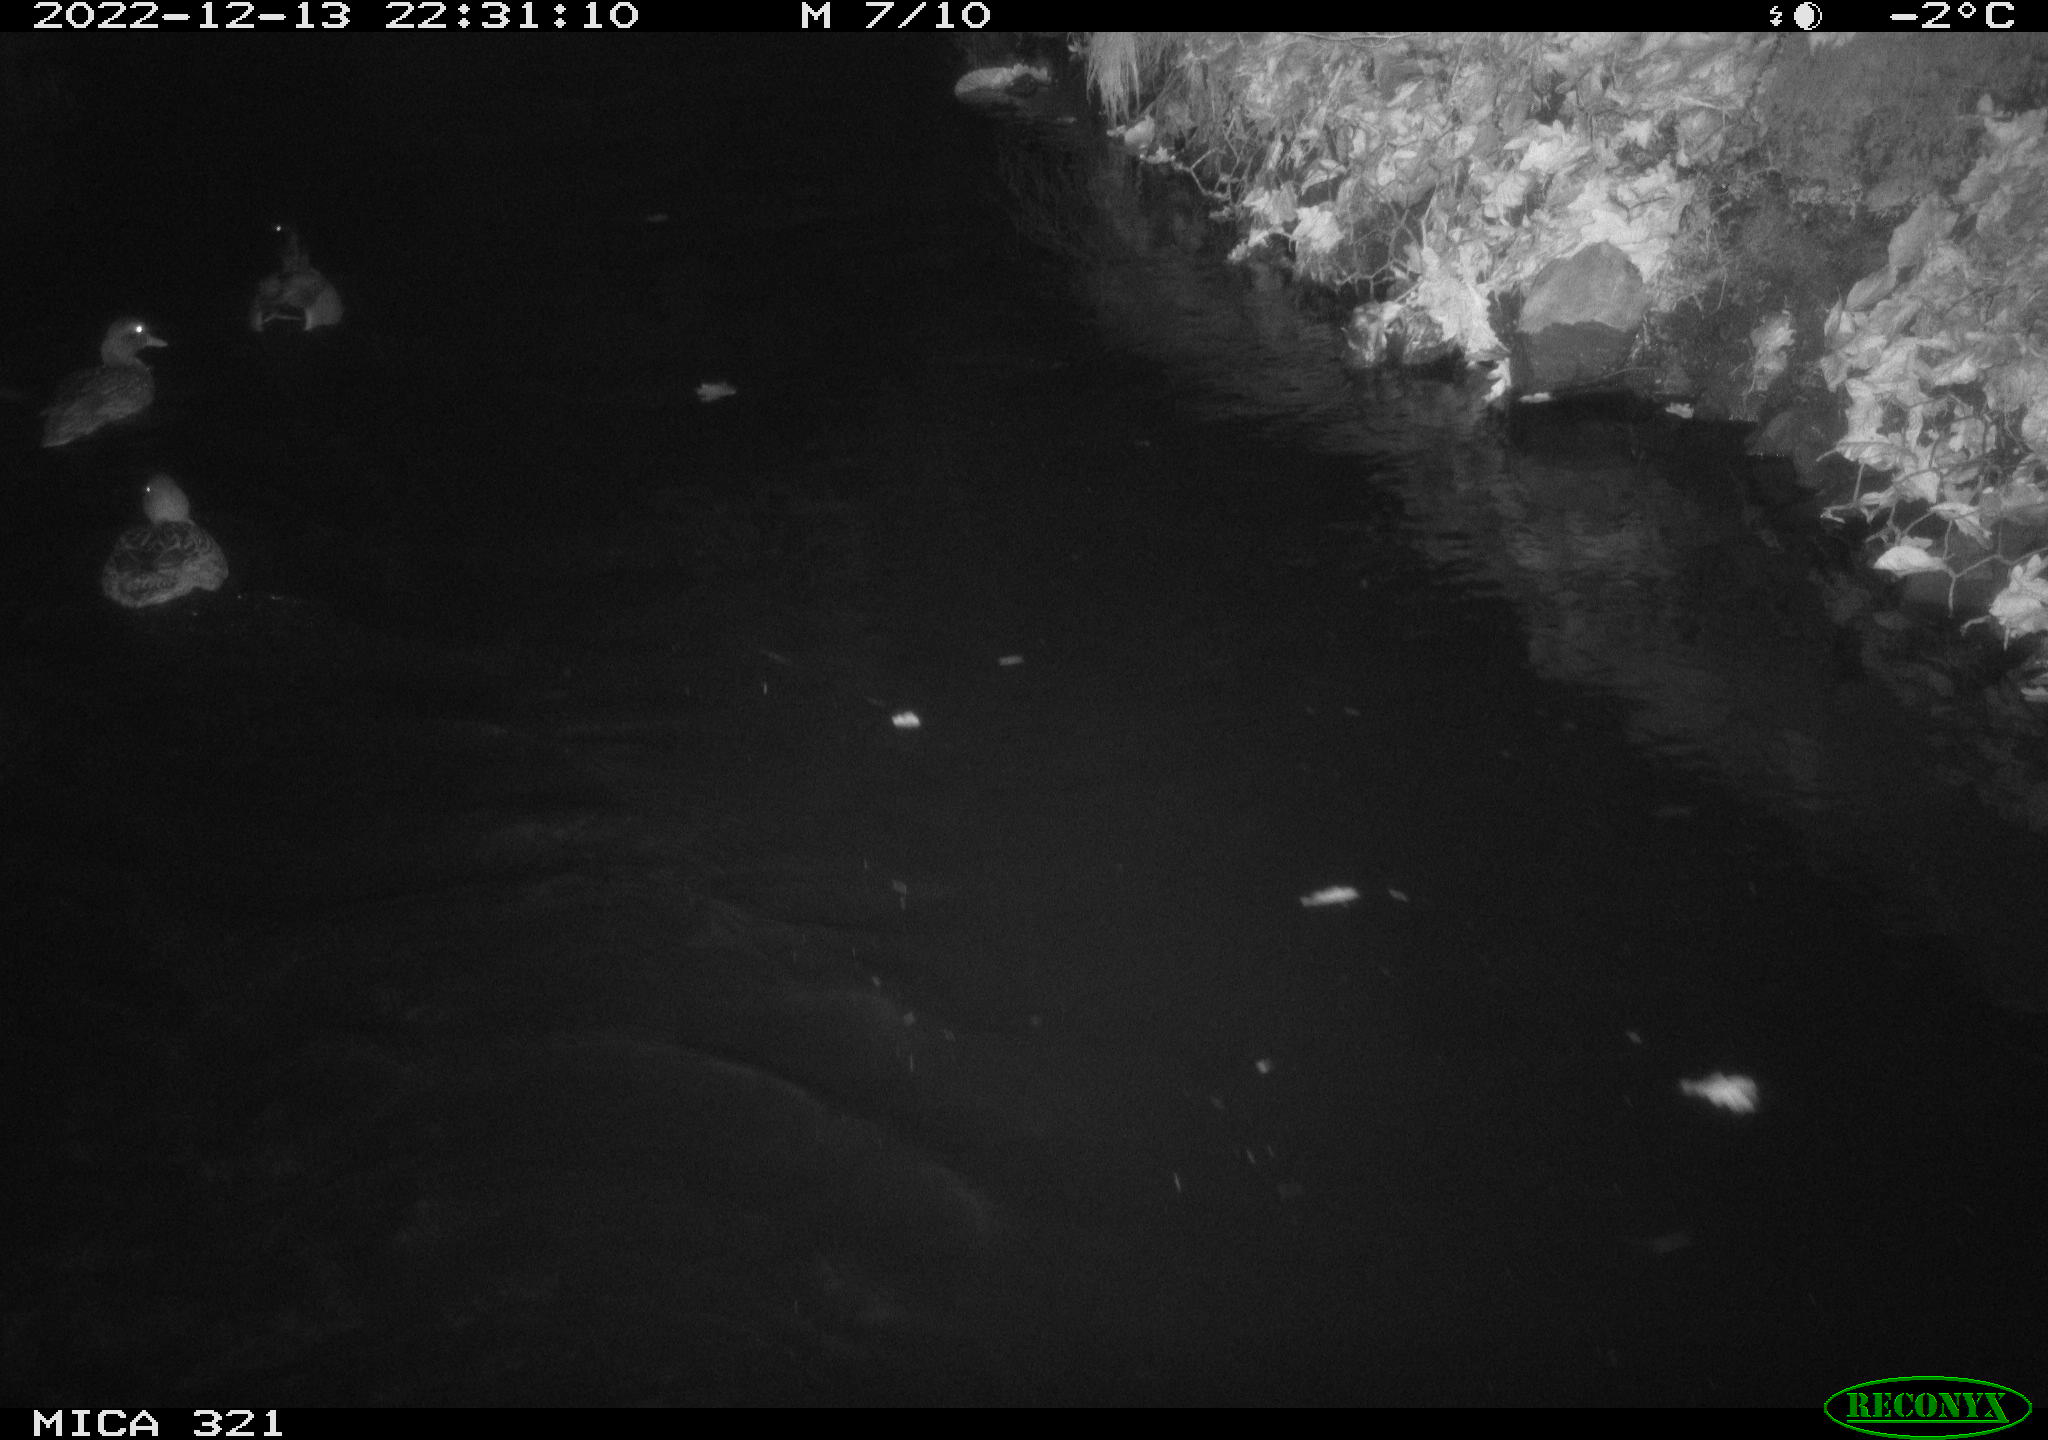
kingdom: Animalia
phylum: Chordata
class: Aves
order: Anseriformes
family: Anatidae
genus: Anas
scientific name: Anas
